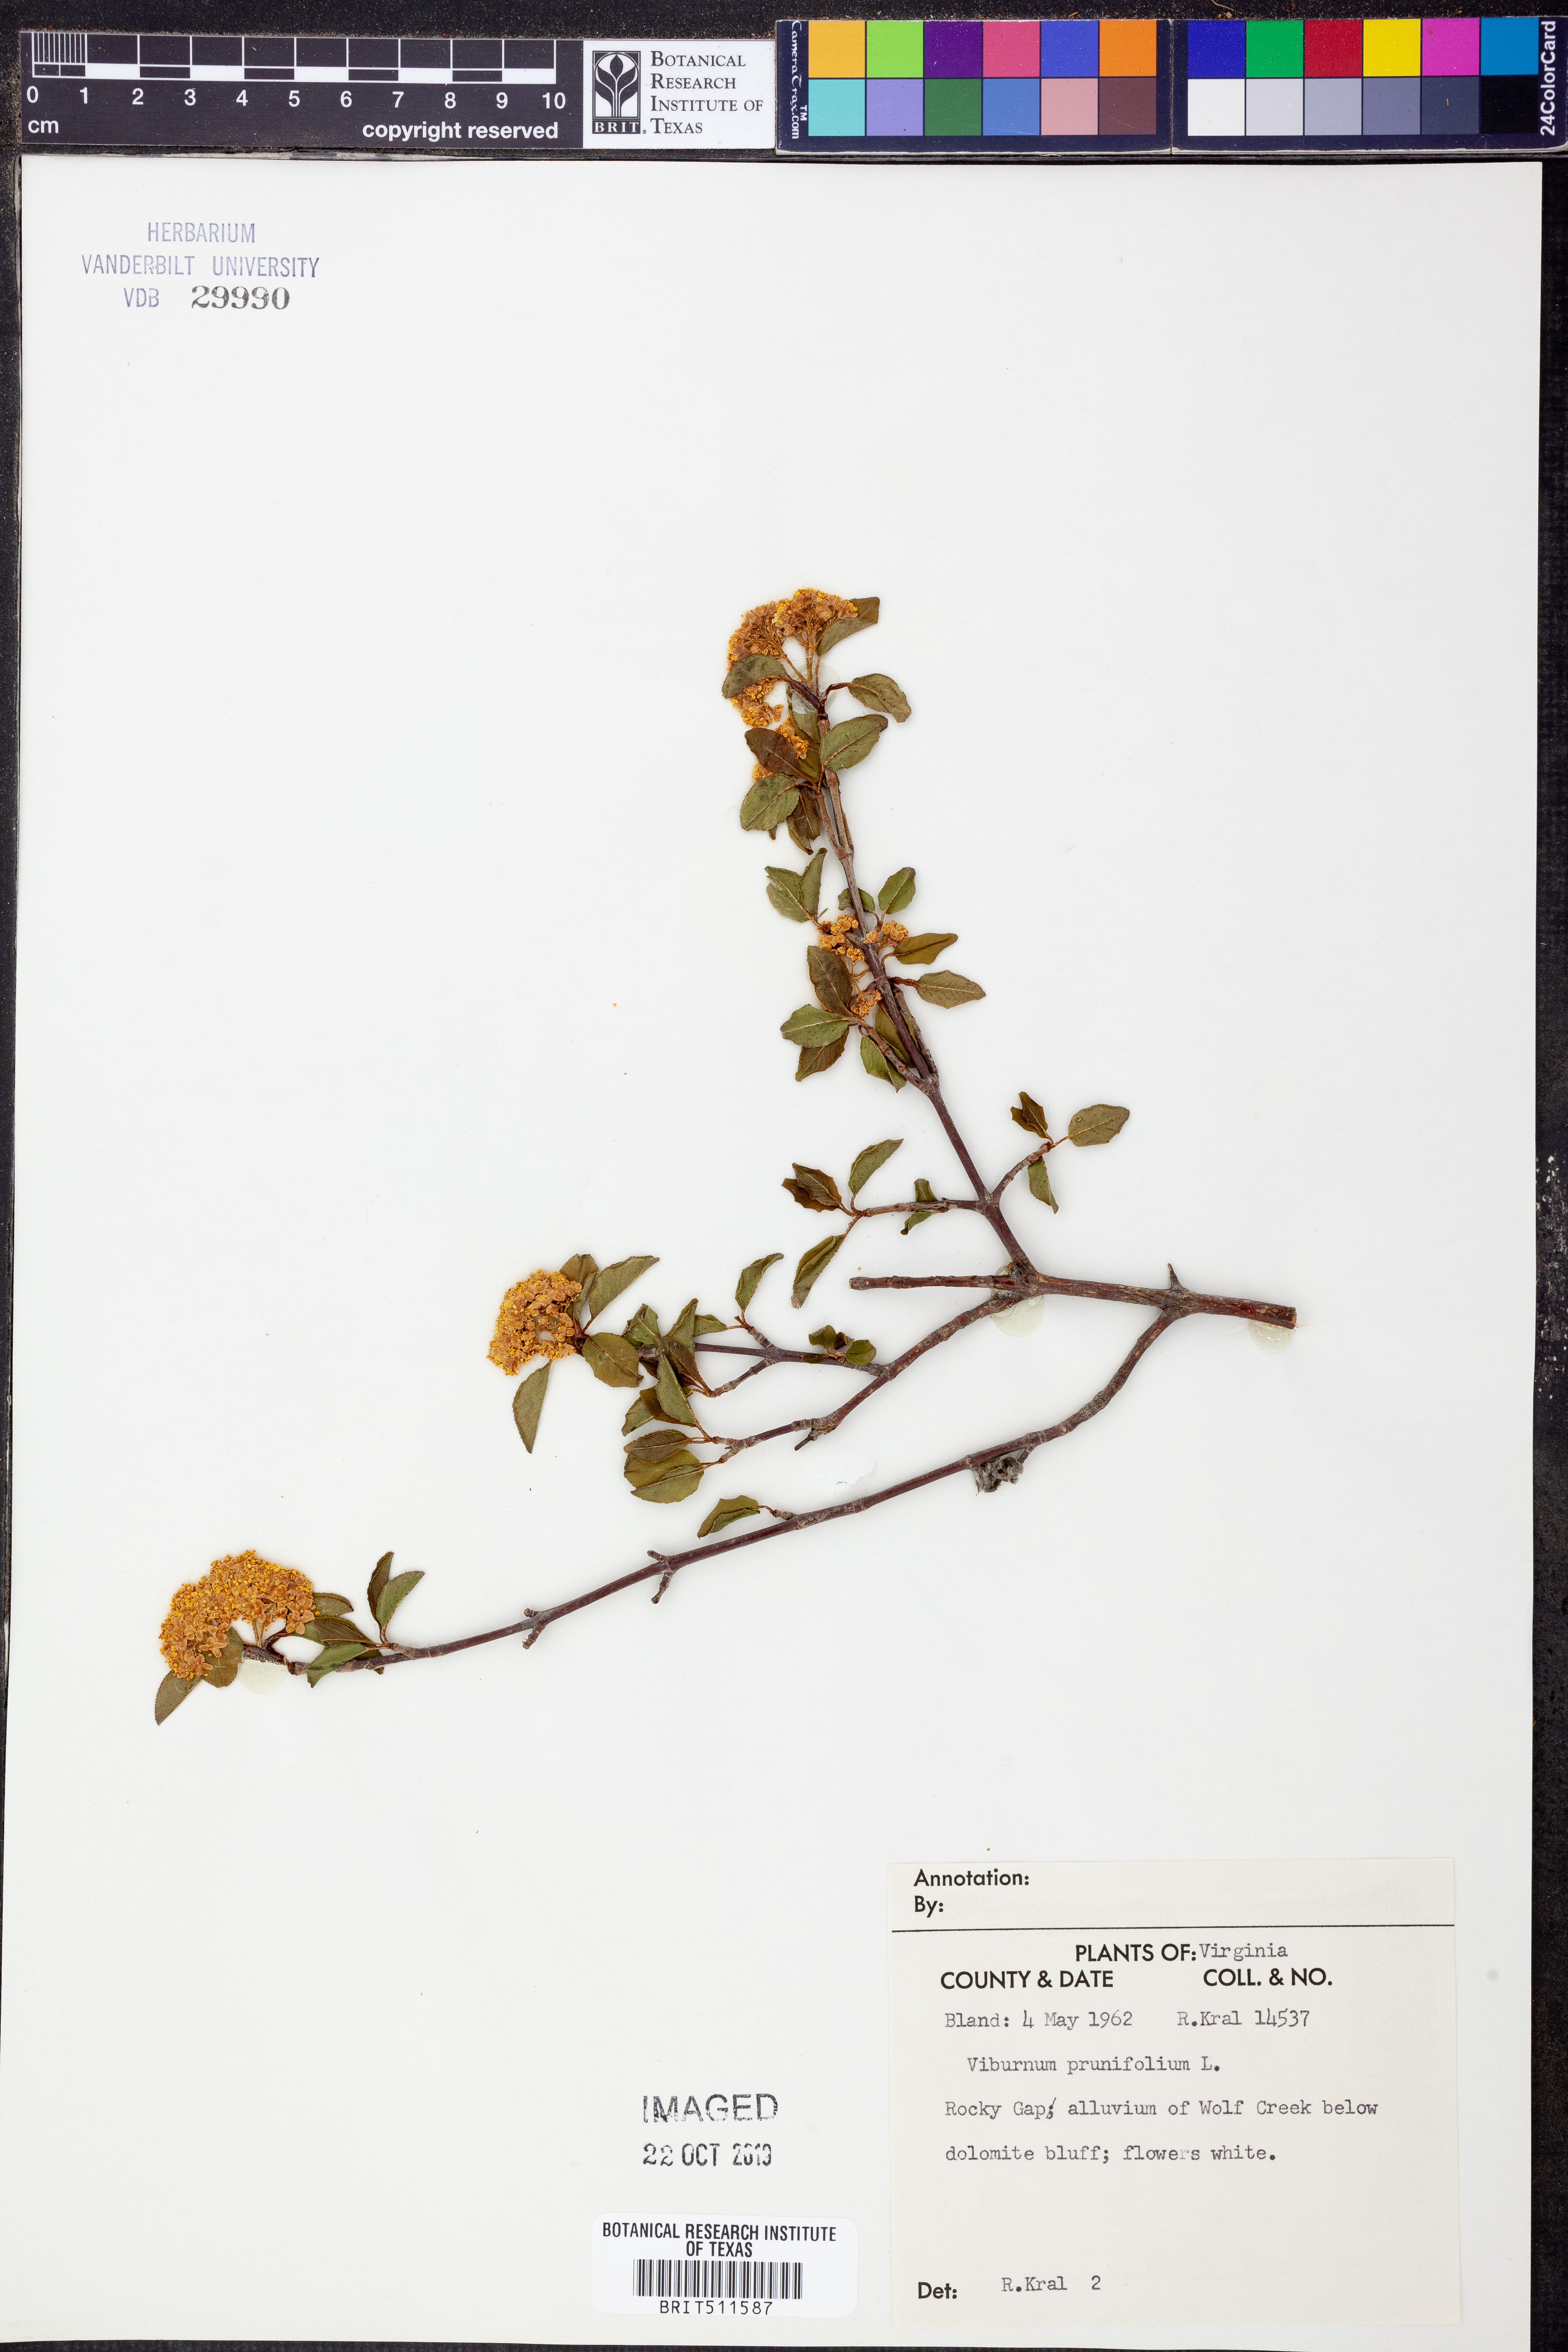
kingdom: Plantae
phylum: Tracheophyta
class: Magnoliopsida
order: Dipsacales
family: Viburnaceae
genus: Viburnum
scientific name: Viburnum prunifolium
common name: Black haw
